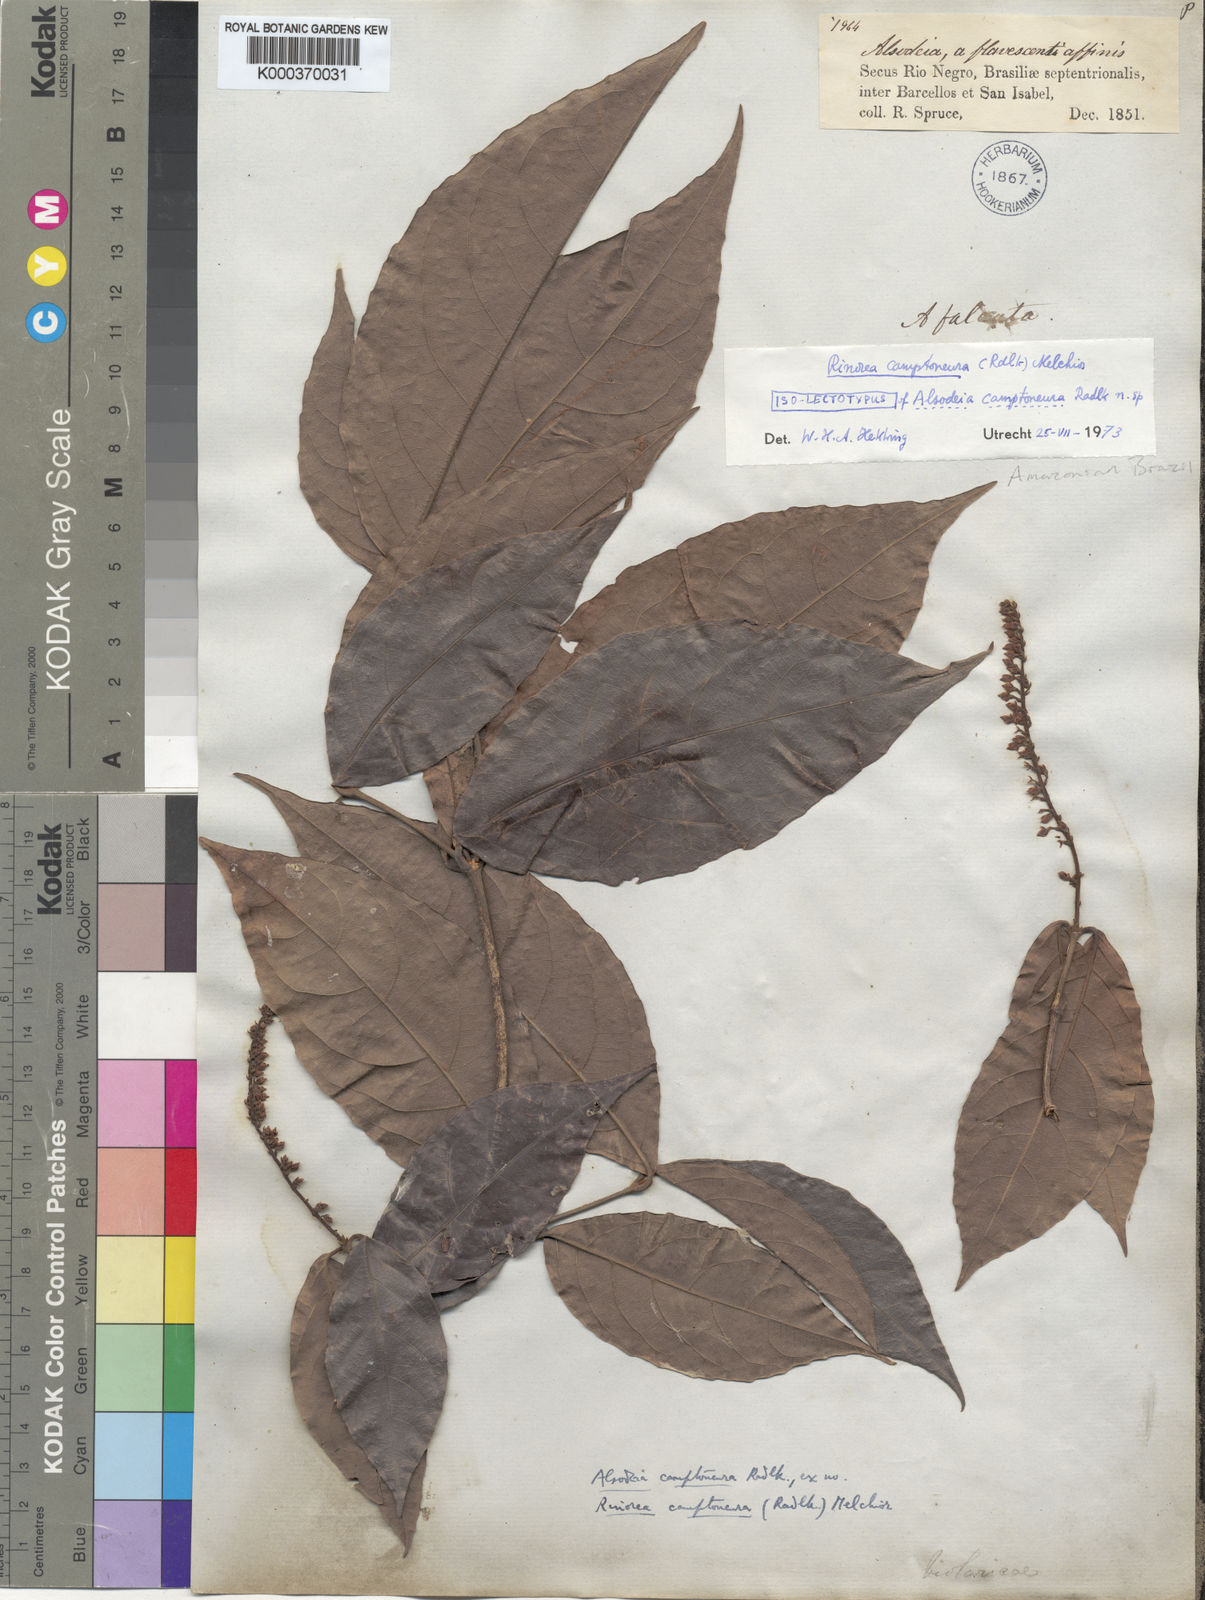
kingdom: Plantae
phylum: Tracheophyta
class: Magnoliopsida
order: Malpighiales
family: Violaceae
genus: Rinorea
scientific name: Rinorea camptoneura
